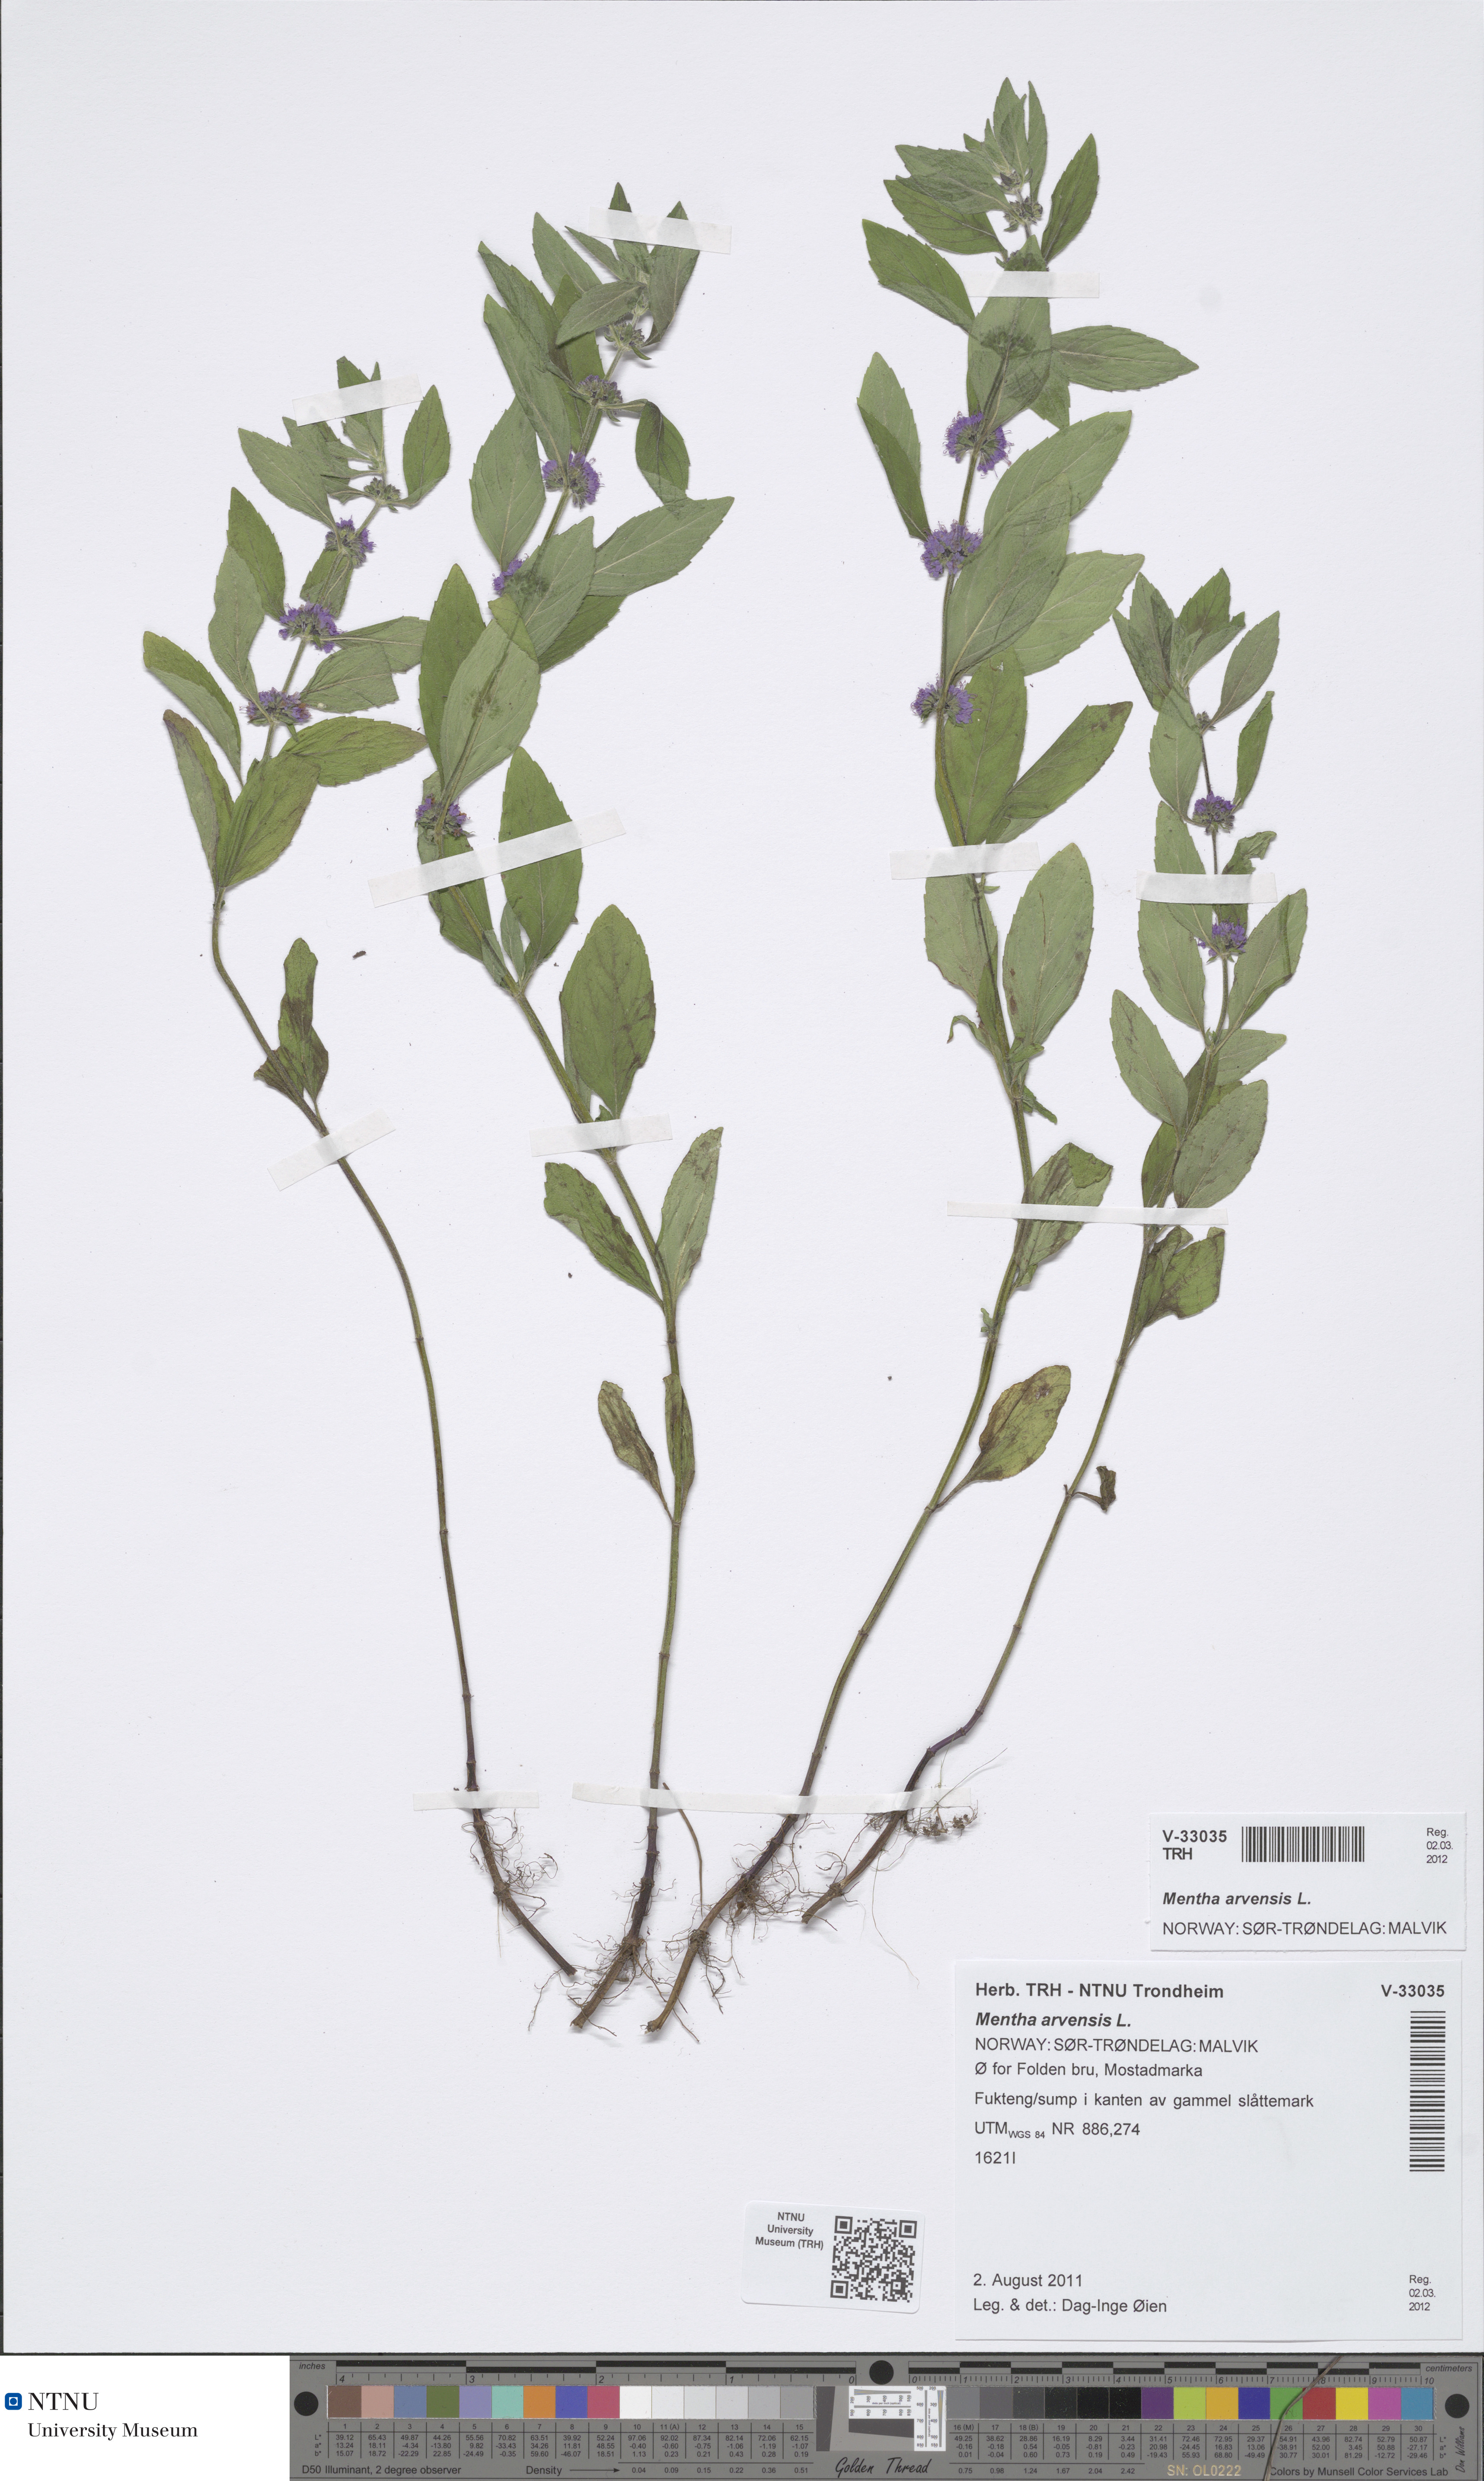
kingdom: Plantae
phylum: Tracheophyta
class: Magnoliopsida
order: Lamiales
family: Lamiaceae
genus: Mentha
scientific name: Mentha arvensis
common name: Corn mint
